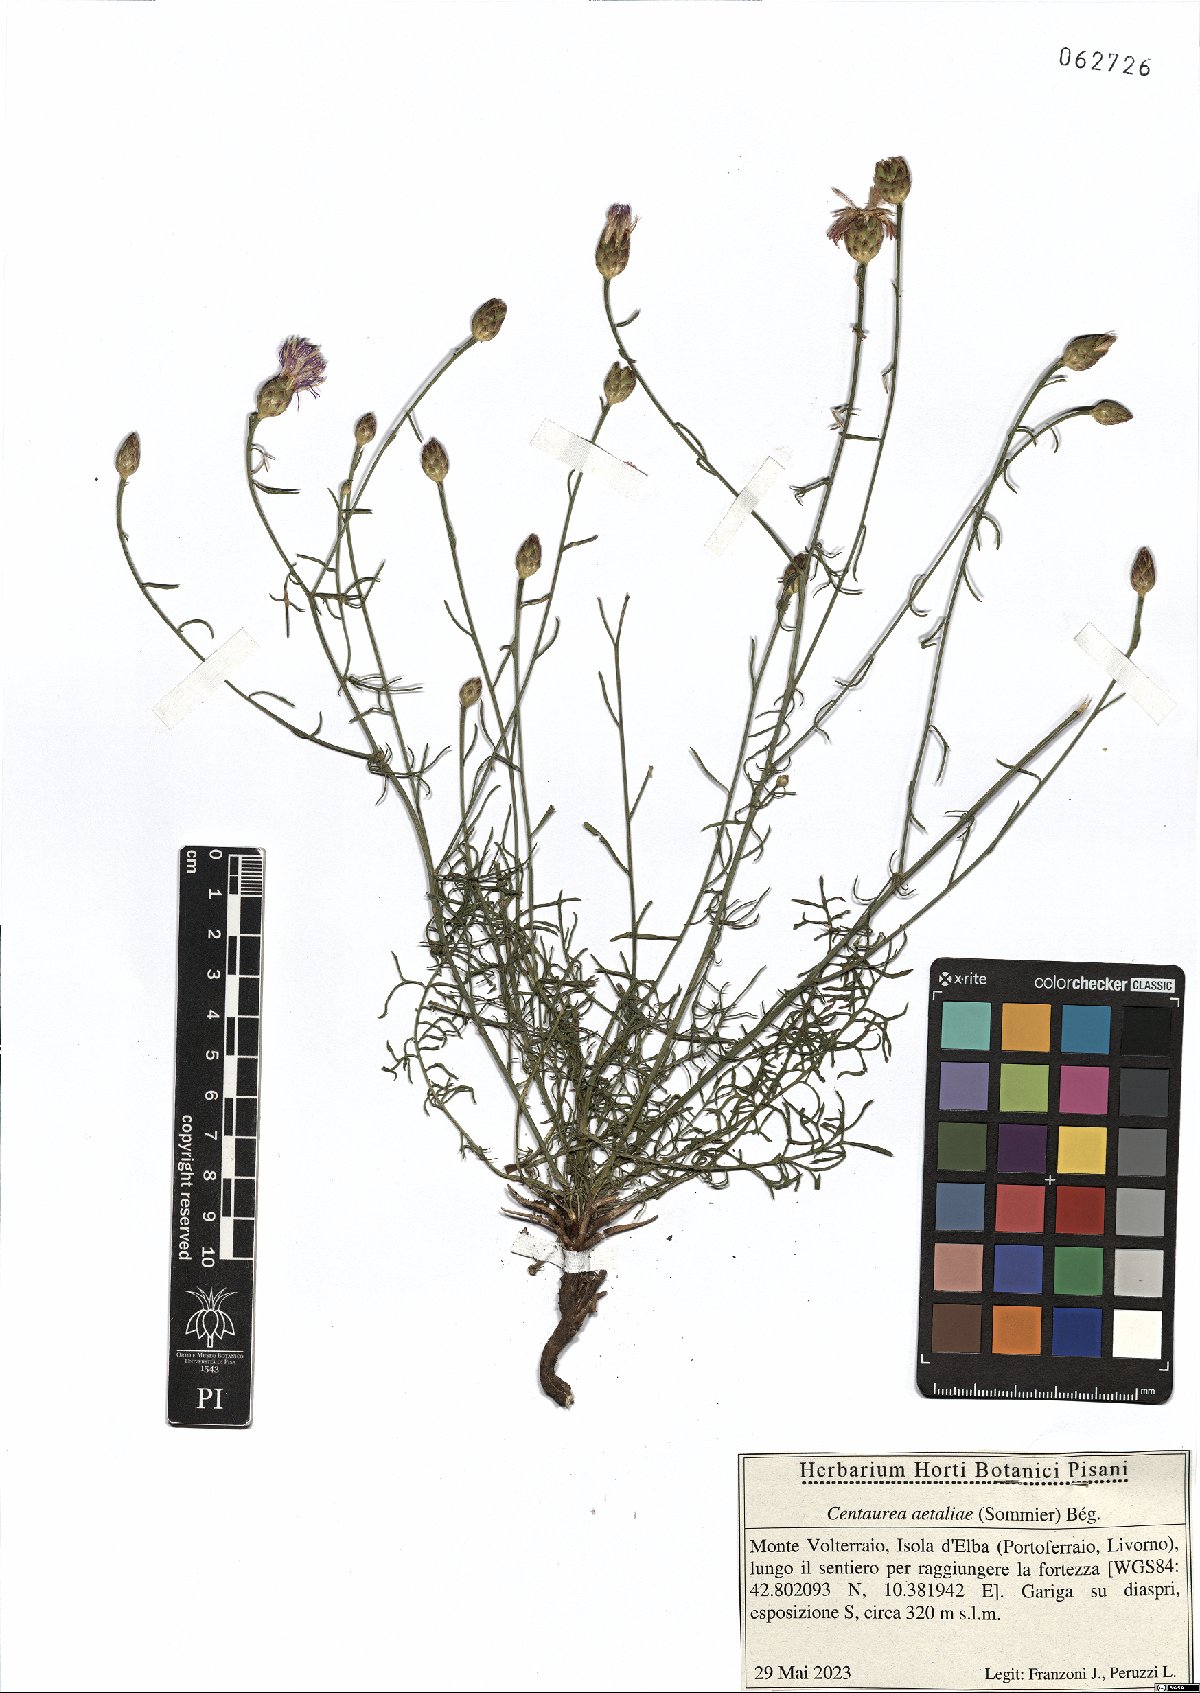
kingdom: Plantae
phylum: Tracheophyta
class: Magnoliopsida
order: Asterales
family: Asteraceae
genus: Centaurea
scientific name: Centaurea aetaliae
